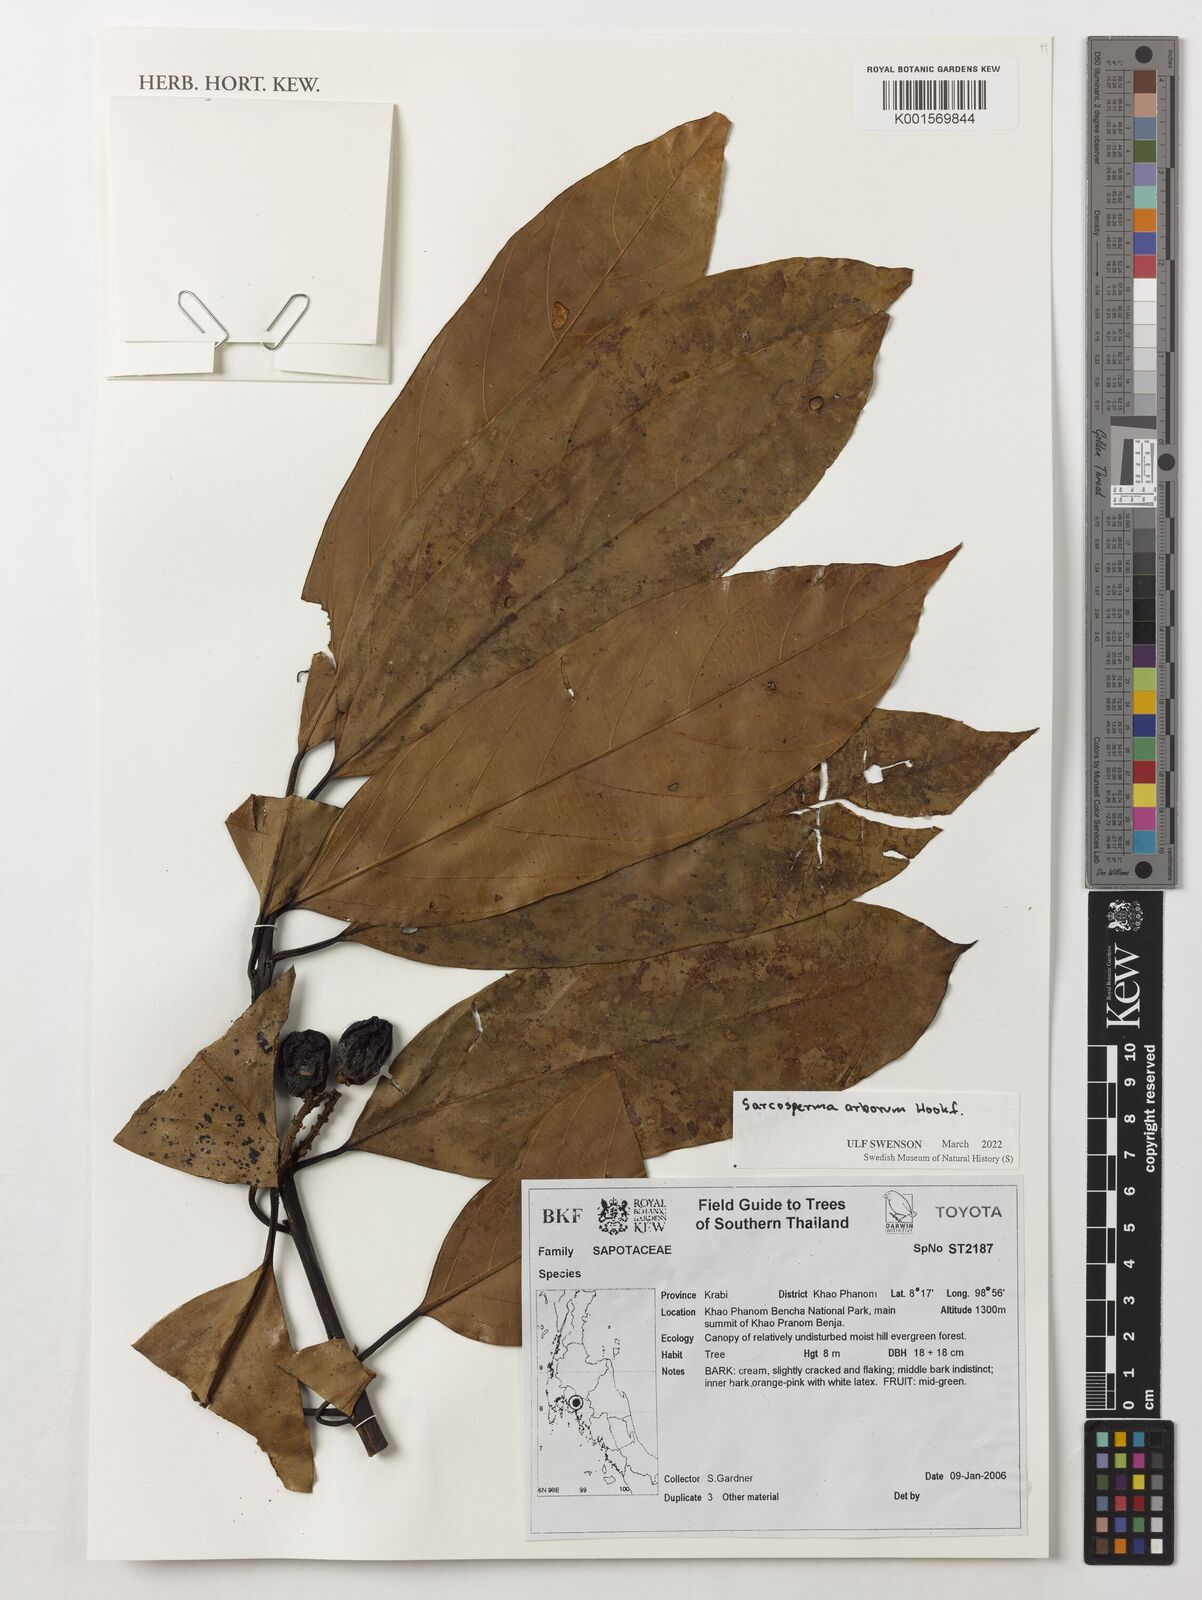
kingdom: Plantae
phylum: Tracheophyta
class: Magnoliopsida
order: Ericales
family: Sapotaceae
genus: Sarcosperma
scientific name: Sarcosperma arboreum
